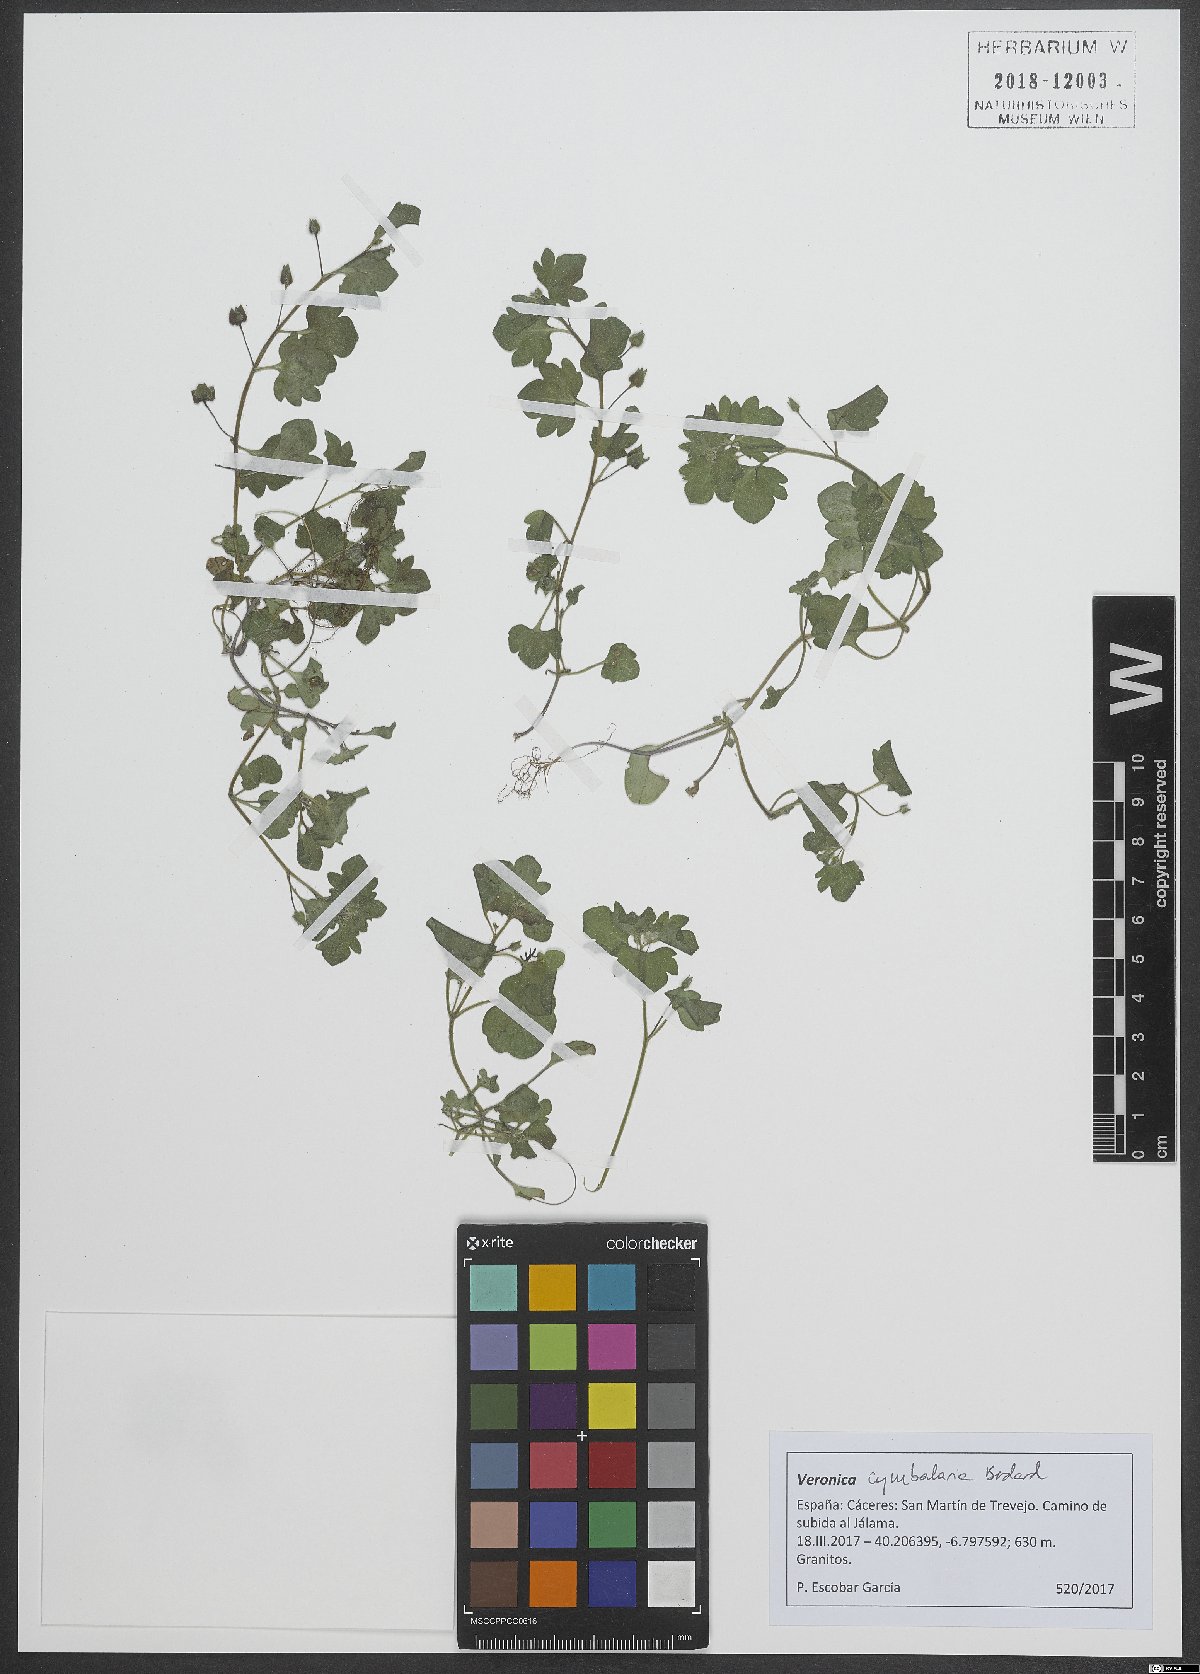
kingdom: Plantae
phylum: Tracheophyta
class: Magnoliopsida
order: Lamiales
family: Plantaginaceae
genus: Veronica
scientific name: Veronica cymbalaria
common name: Pale speedwell
